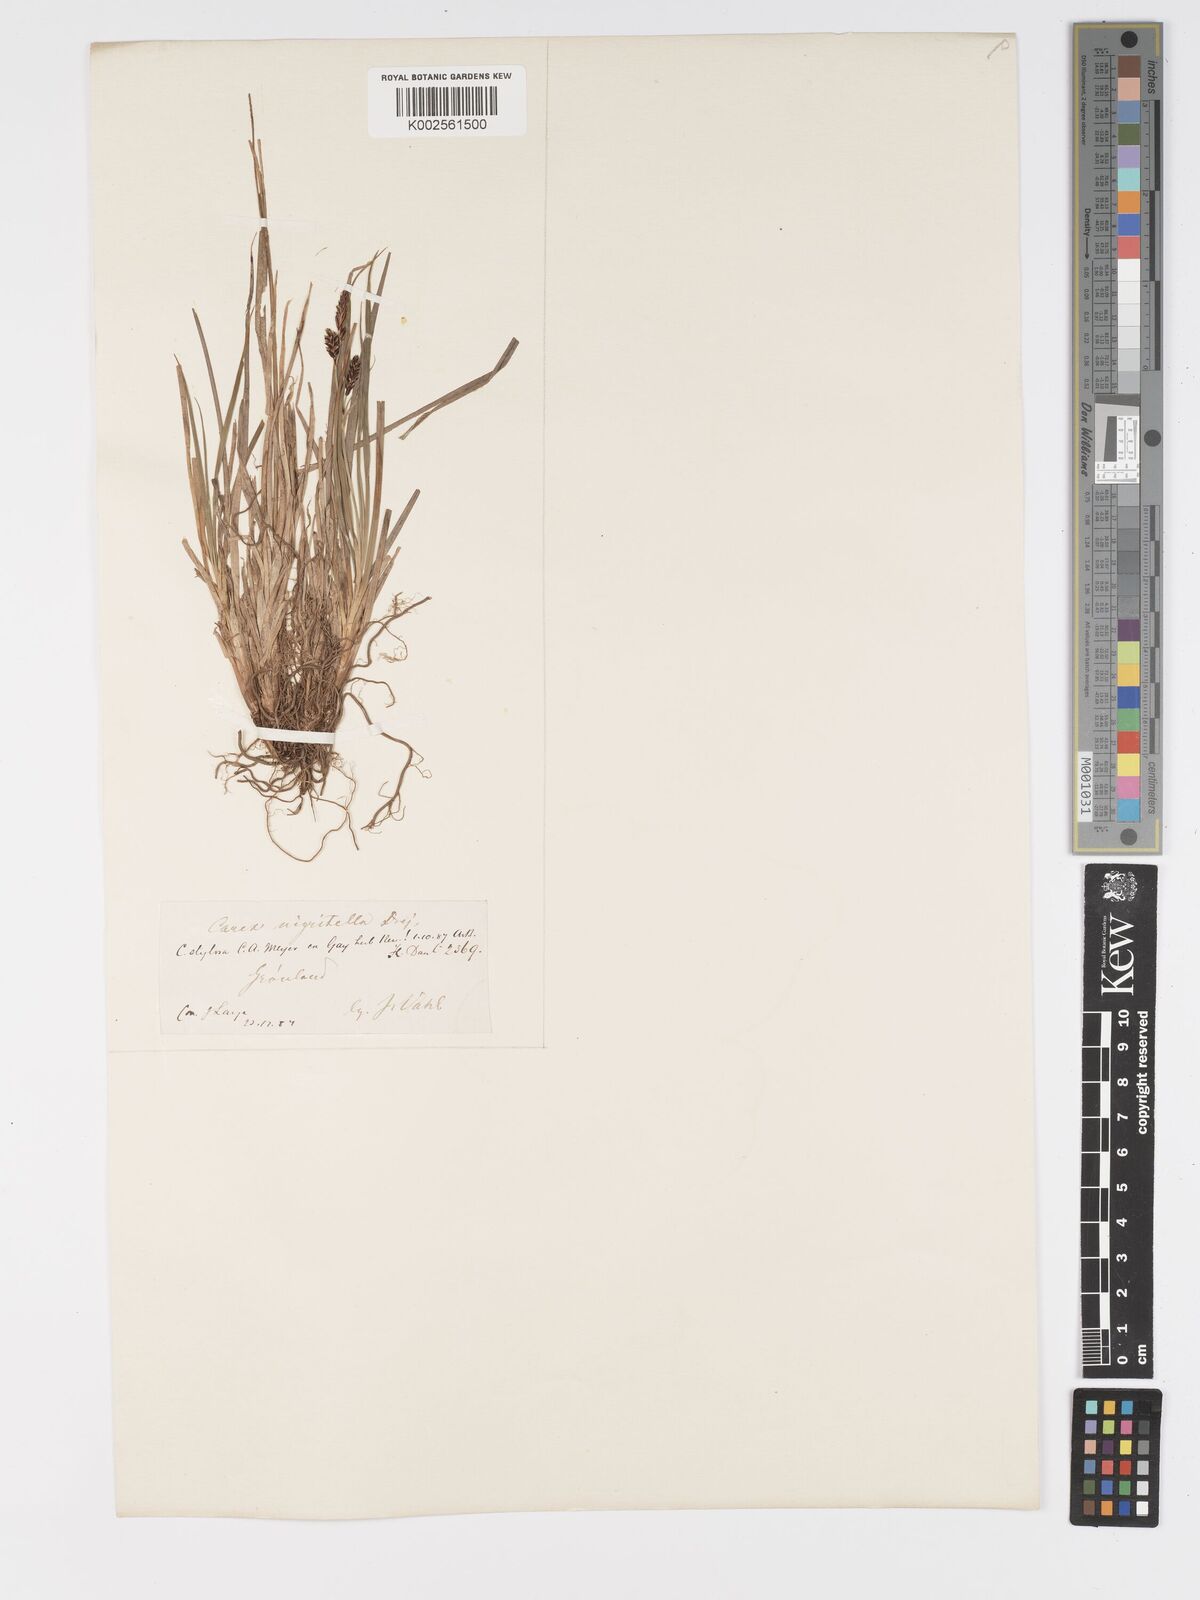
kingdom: Plantae
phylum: Tracheophyta
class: Liliopsida
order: Poales
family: Cyperaceae
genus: Carex
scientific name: Carex stylosa
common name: Long-styled sedge
